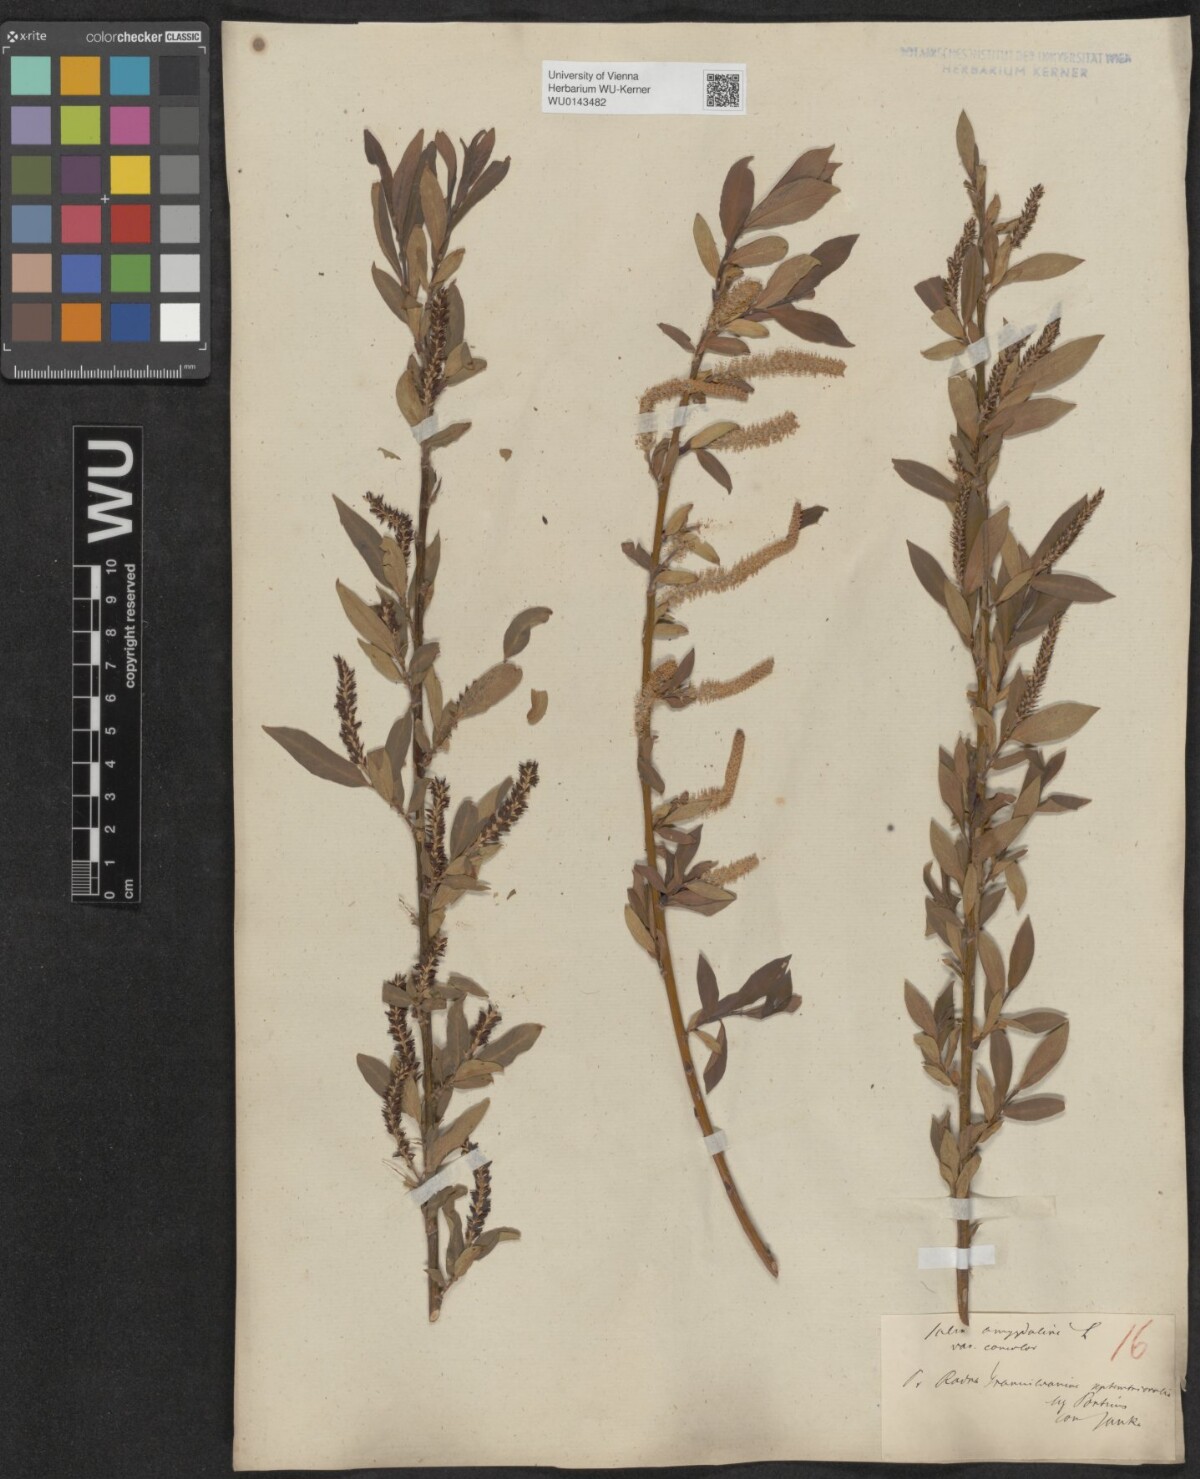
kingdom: Plantae
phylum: Tracheophyta
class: Magnoliopsida
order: Malpighiales
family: Salicaceae
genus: Salix
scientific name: Salix triandra
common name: Almond willow
